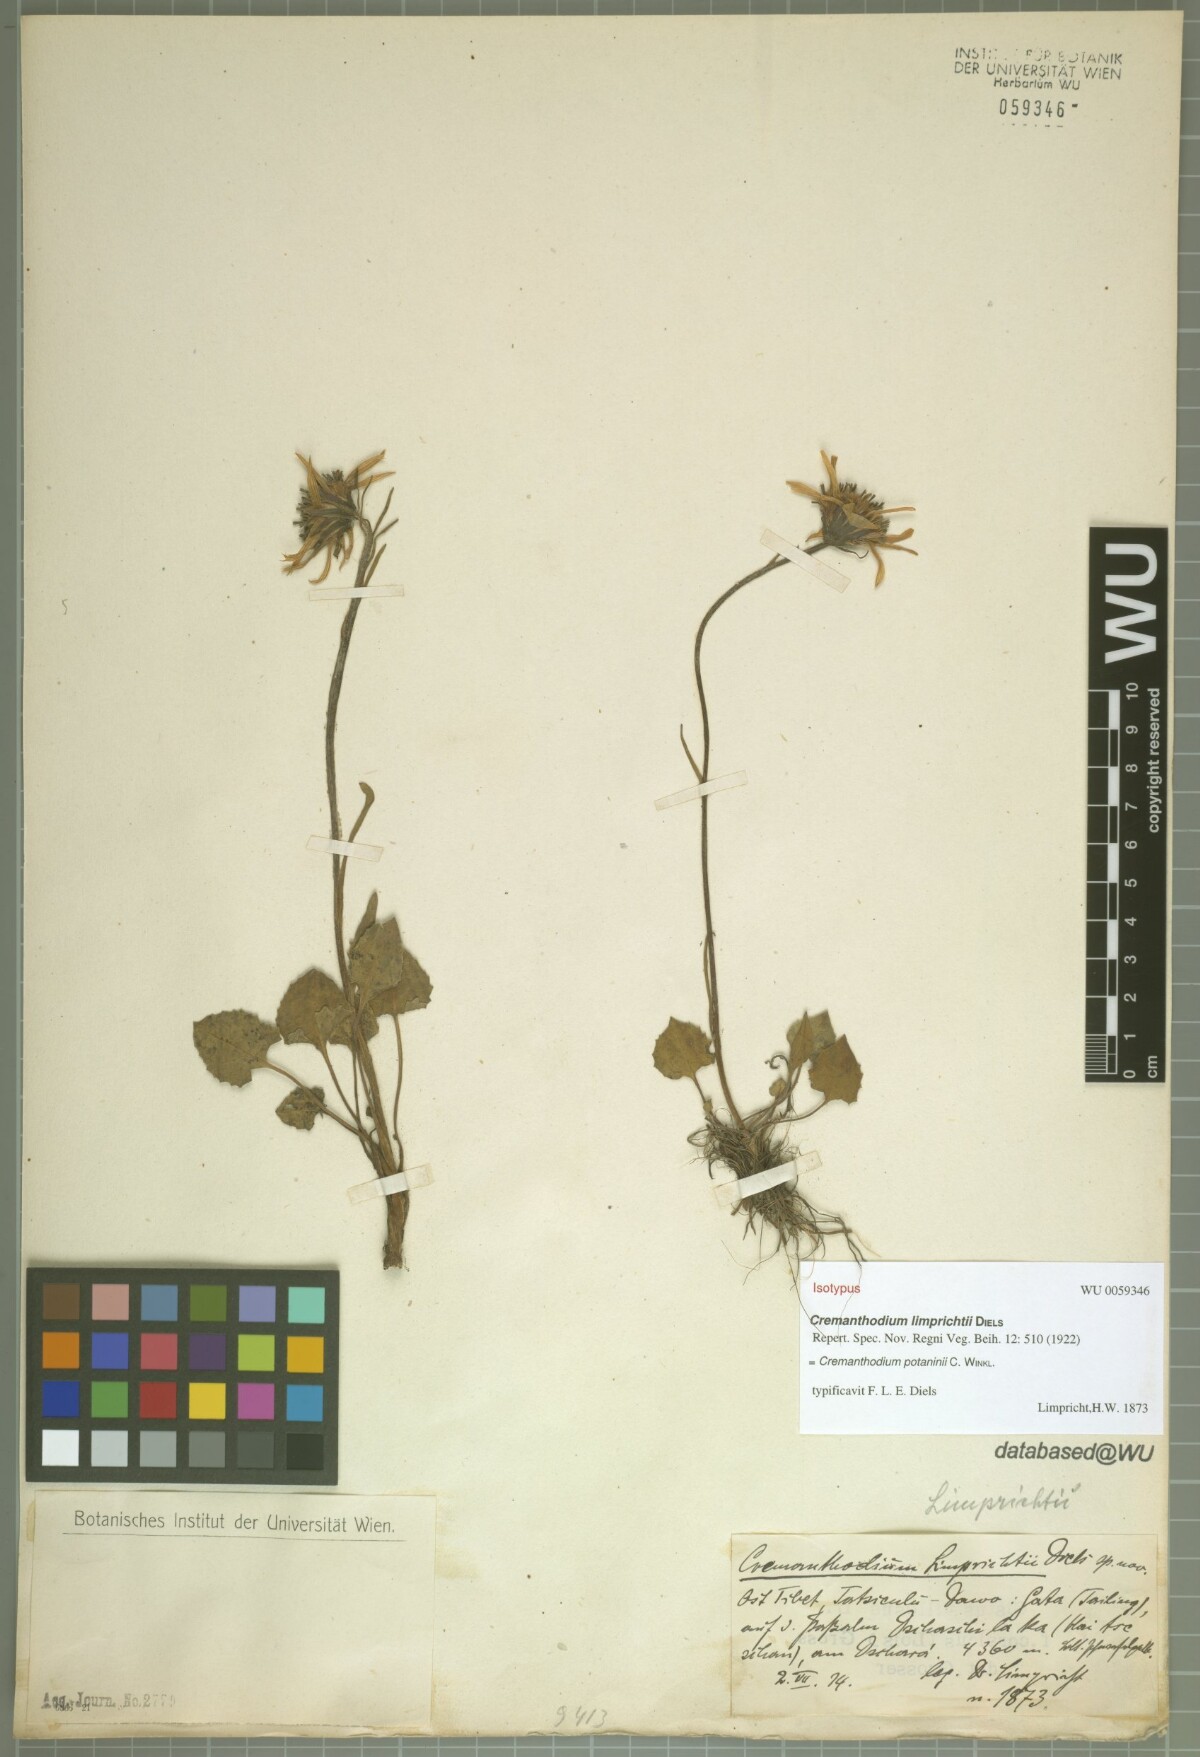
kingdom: Plantae
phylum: Tracheophyta
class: Magnoliopsida
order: Asterales
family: Asteraceae
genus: Cremanthodium
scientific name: Cremanthodium potaninii
